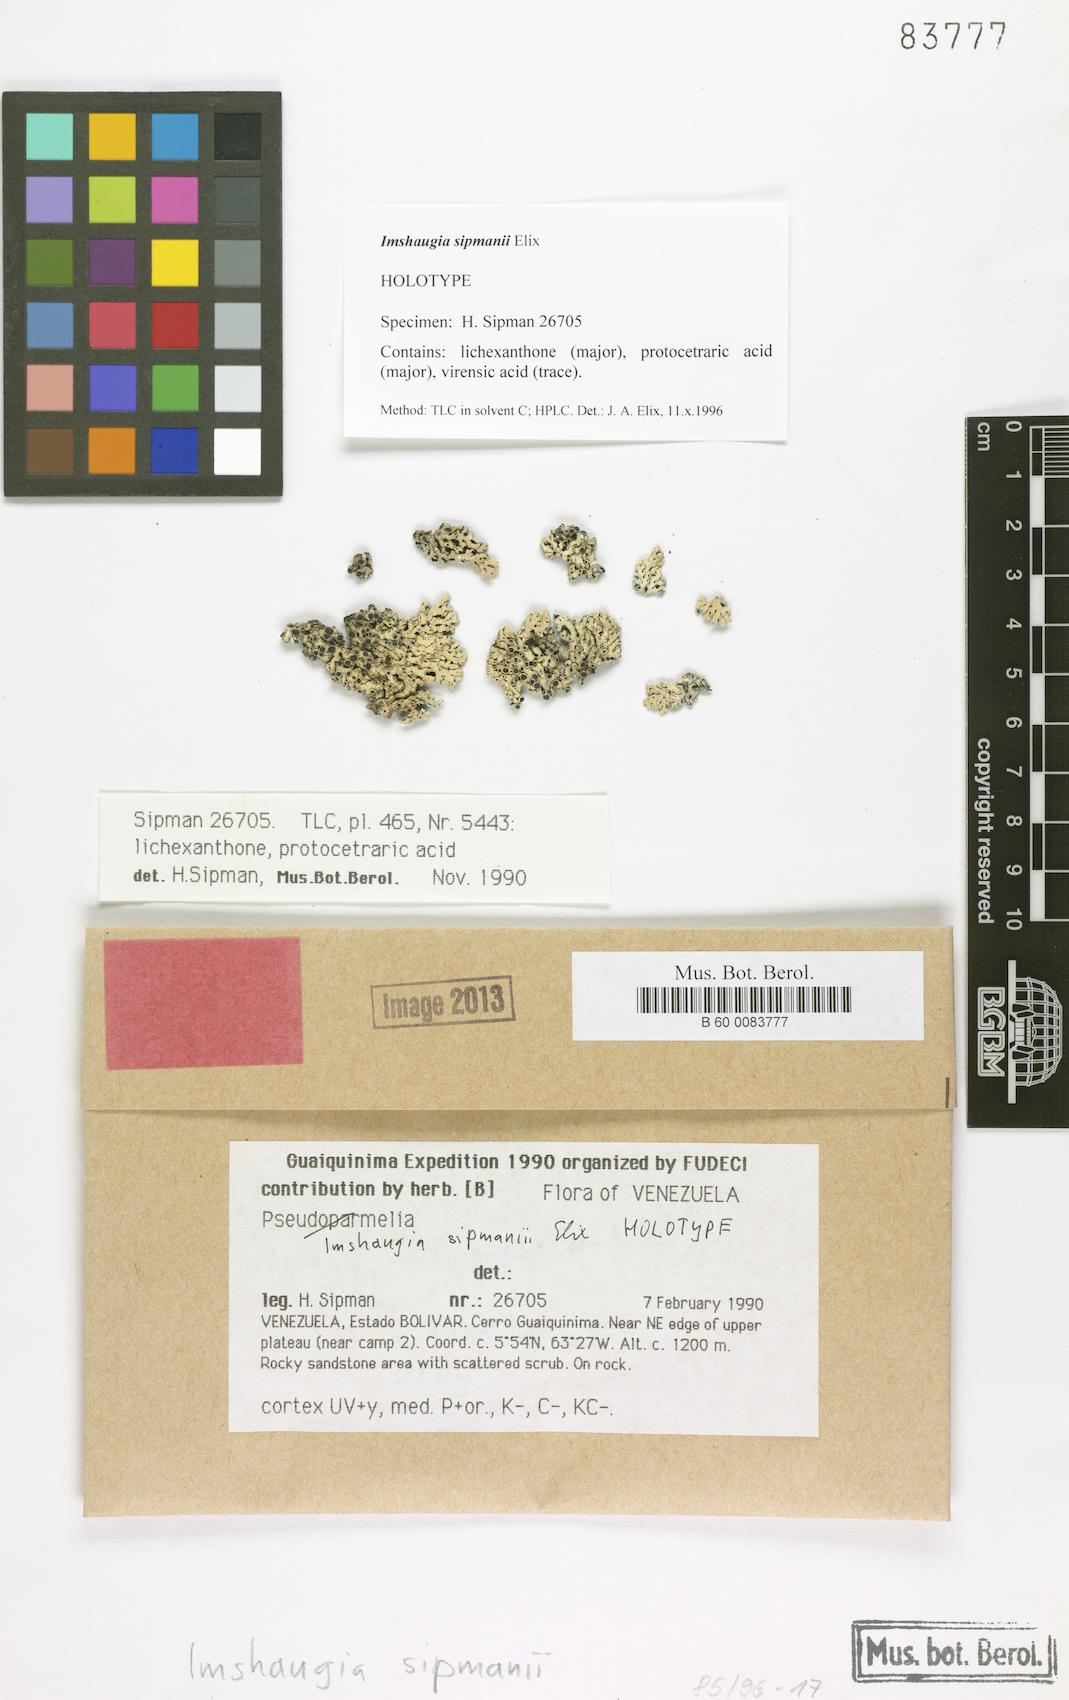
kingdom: Fungi
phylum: Ascomycota
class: Lecanoromycetes
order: Lecanorales
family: Parmeliaceae
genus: Imshaugia
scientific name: Imshaugia sipmanii
